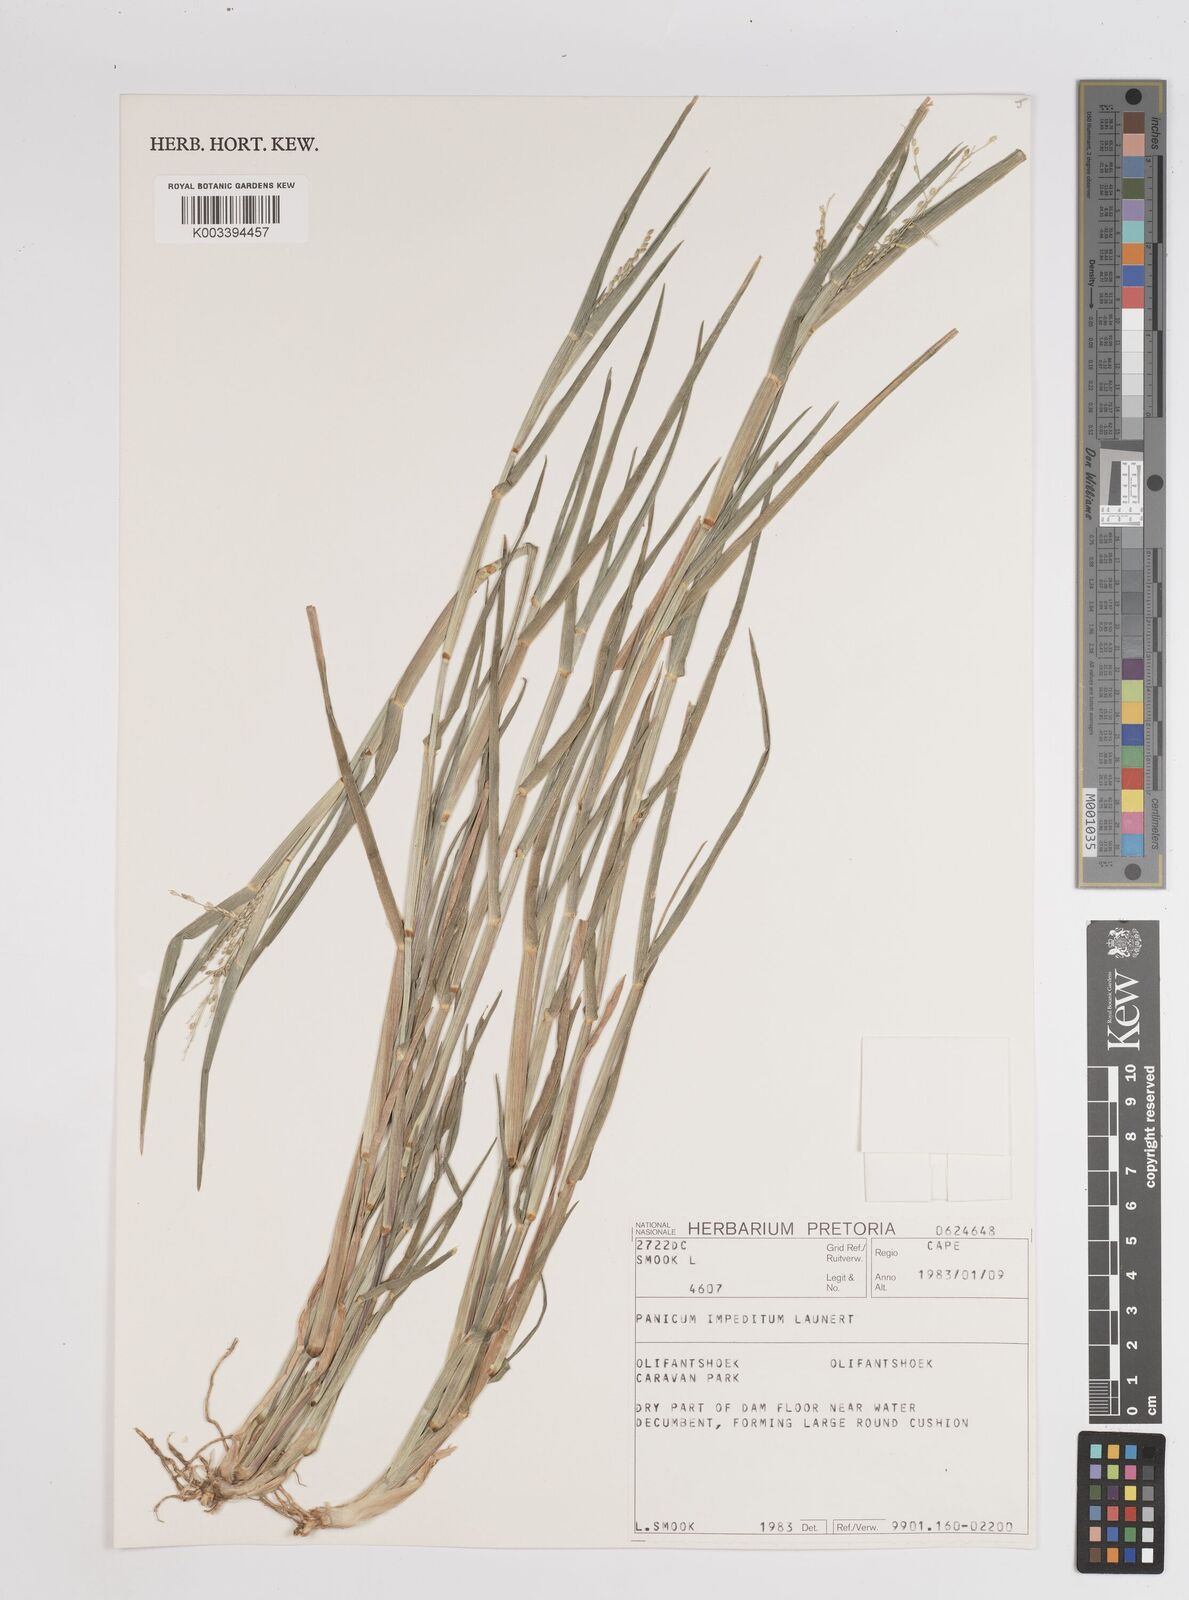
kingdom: Plantae
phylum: Tracheophyta
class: Liliopsida
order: Poales
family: Poaceae
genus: Panicum
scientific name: Panicum
